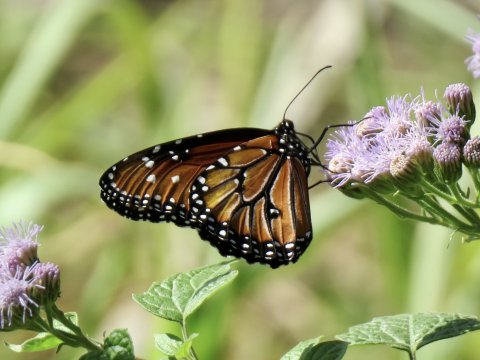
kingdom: Animalia
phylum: Arthropoda
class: Insecta
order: Lepidoptera
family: Nymphalidae
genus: Danaus
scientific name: Danaus gilippus
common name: Queen
